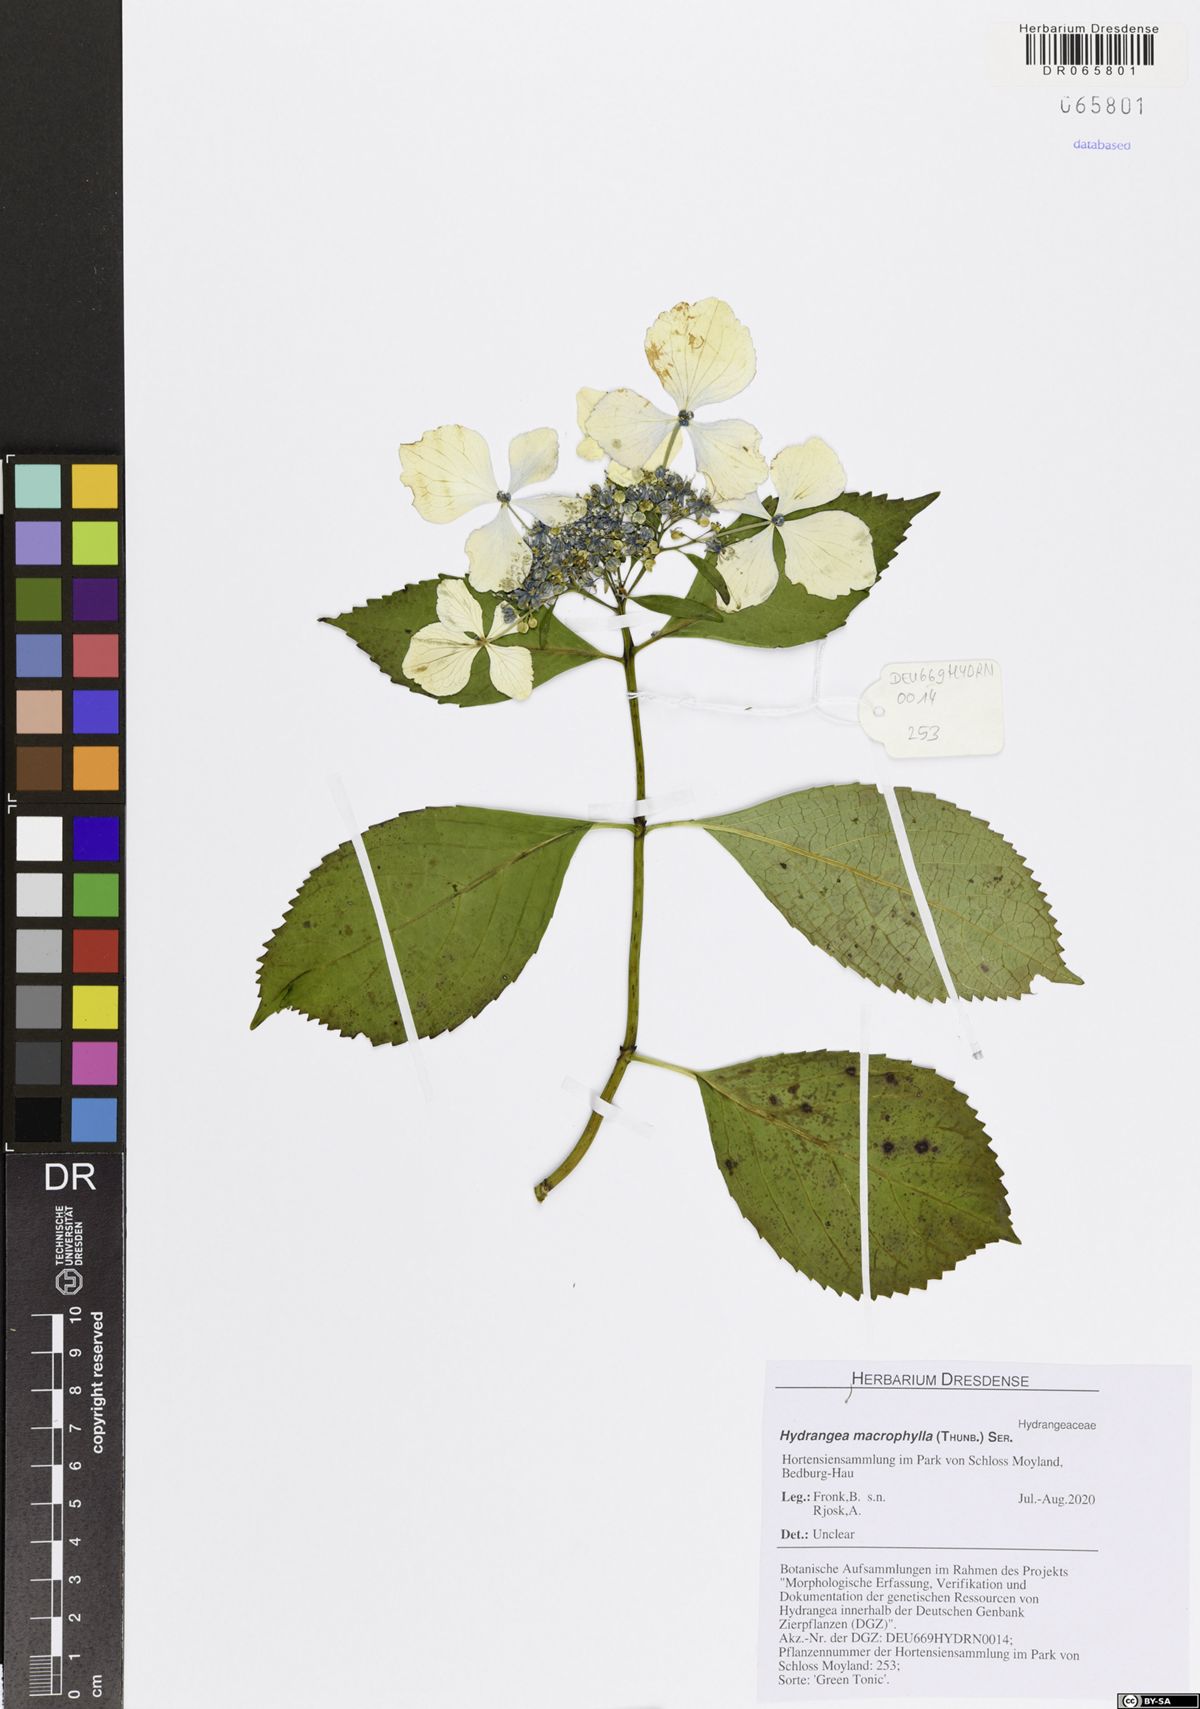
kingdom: Plantae
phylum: Tracheophyta
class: Magnoliopsida
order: Cornales
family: Hydrangeaceae
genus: Hydrangea
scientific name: Hydrangea macrophylla
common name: Hydrangea
